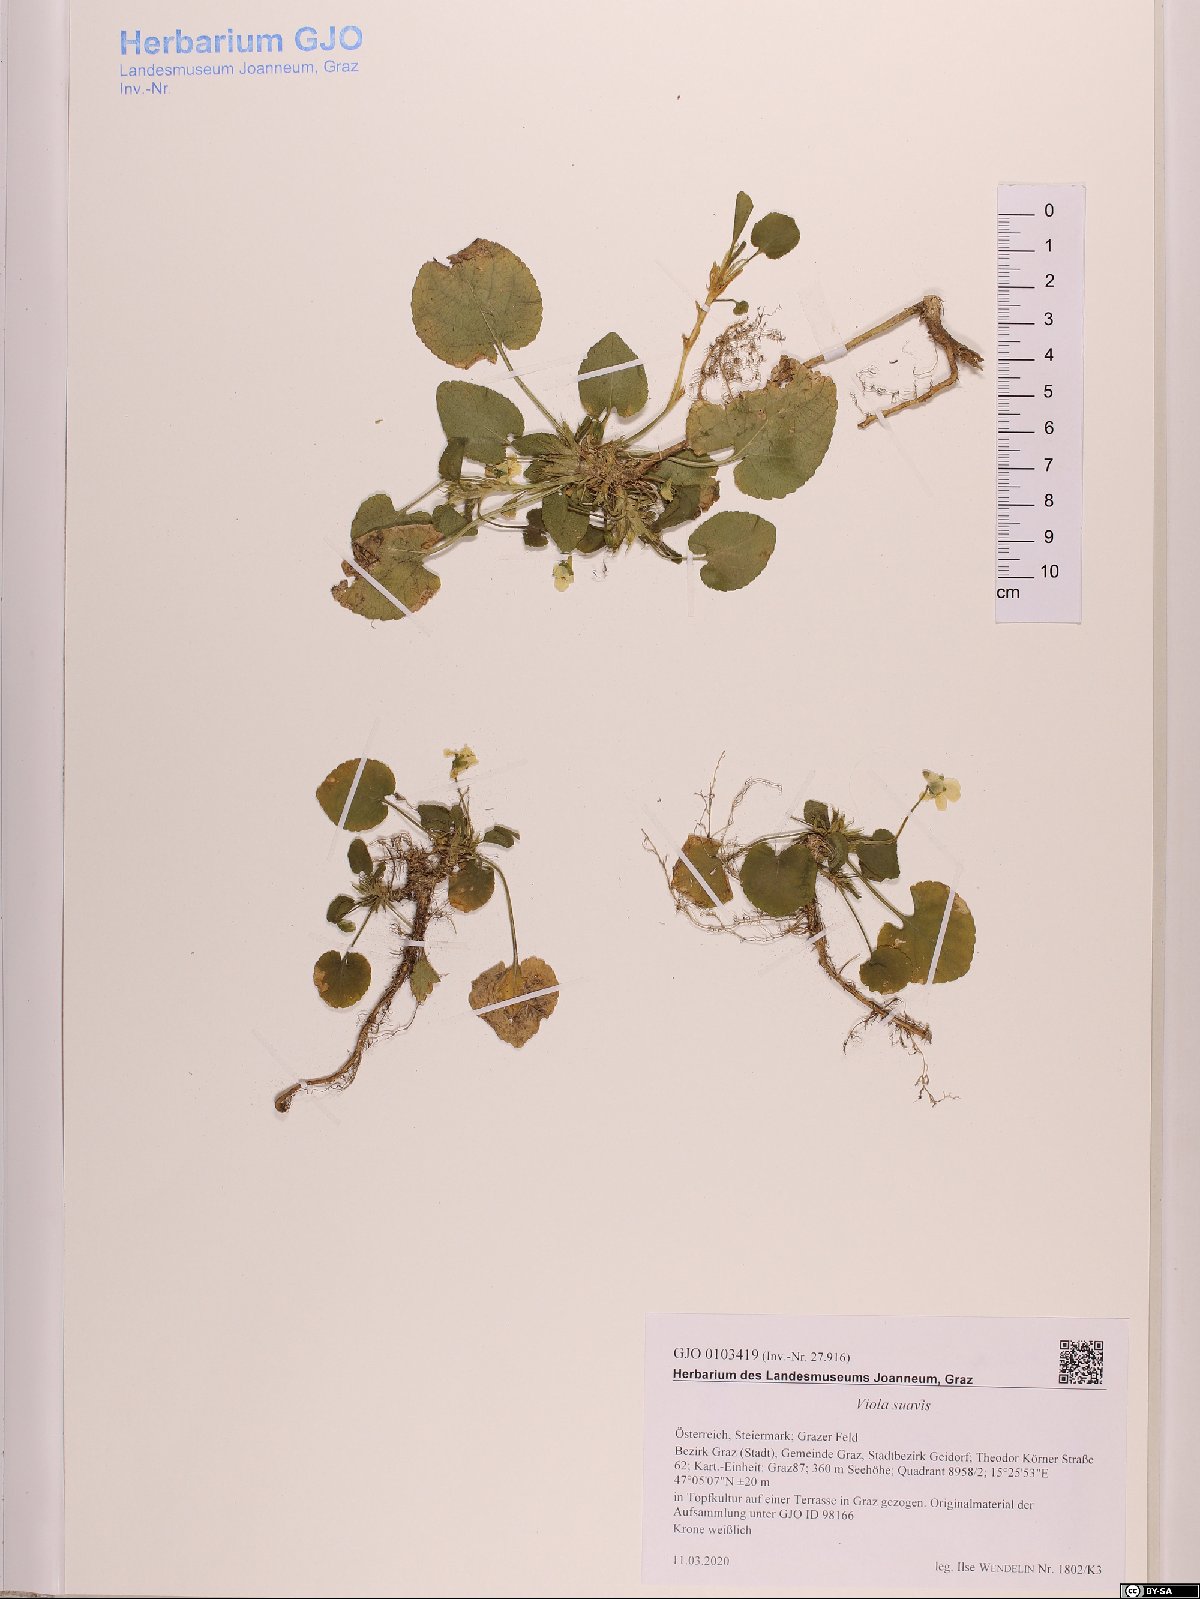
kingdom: Plantae
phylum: Tracheophyta
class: Magnoliopsida
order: Malpighiales
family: Violaceae
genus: Viola
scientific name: Viola suavis
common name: Russian violet
